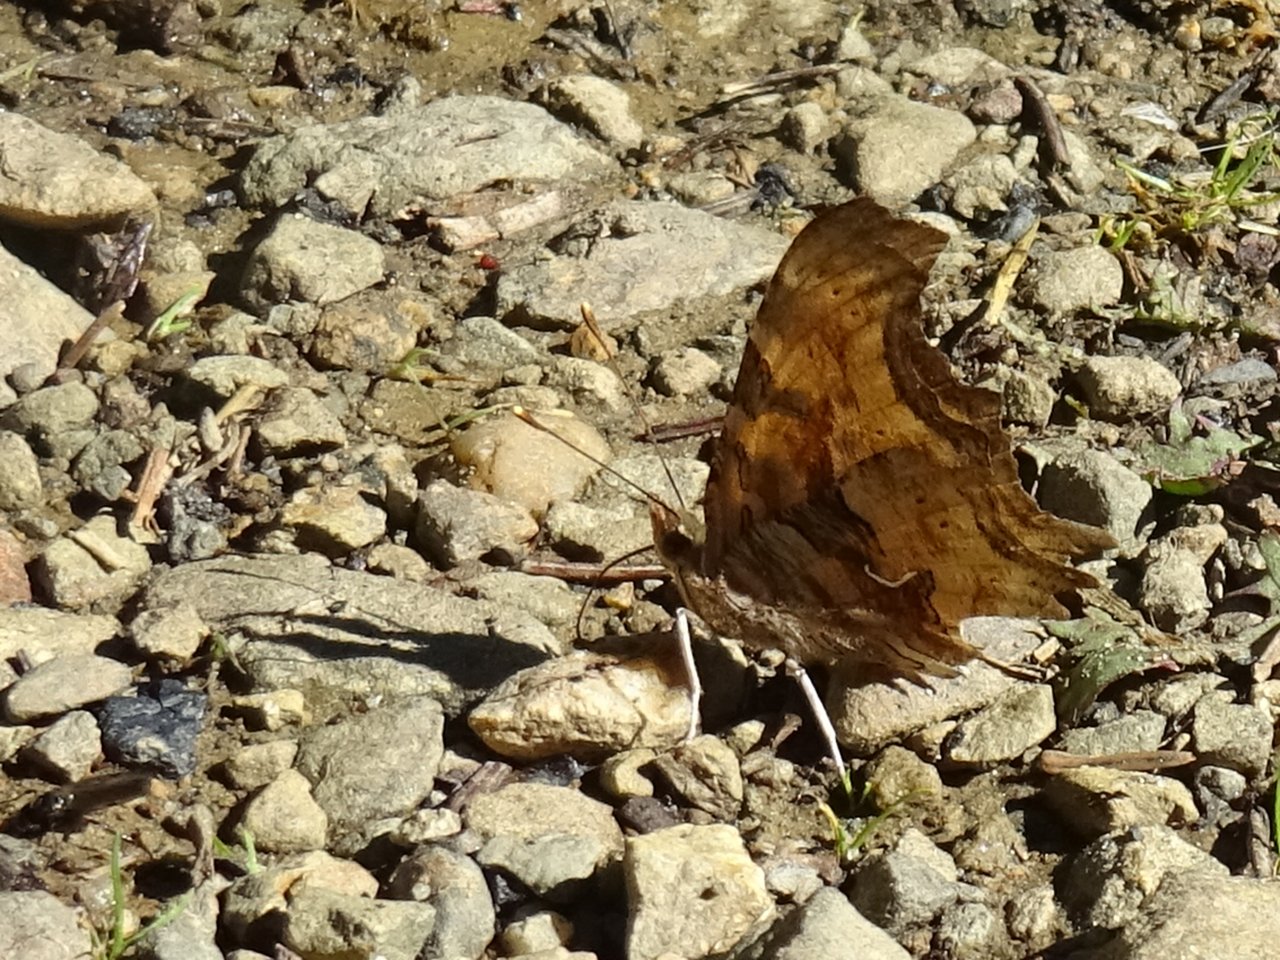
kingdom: Animalia
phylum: Arthropoda
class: Insecta
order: Lepidoptera
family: Nymphalidae
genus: Polygonia
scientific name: Polygonia satyrus
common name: Satyr Comma
